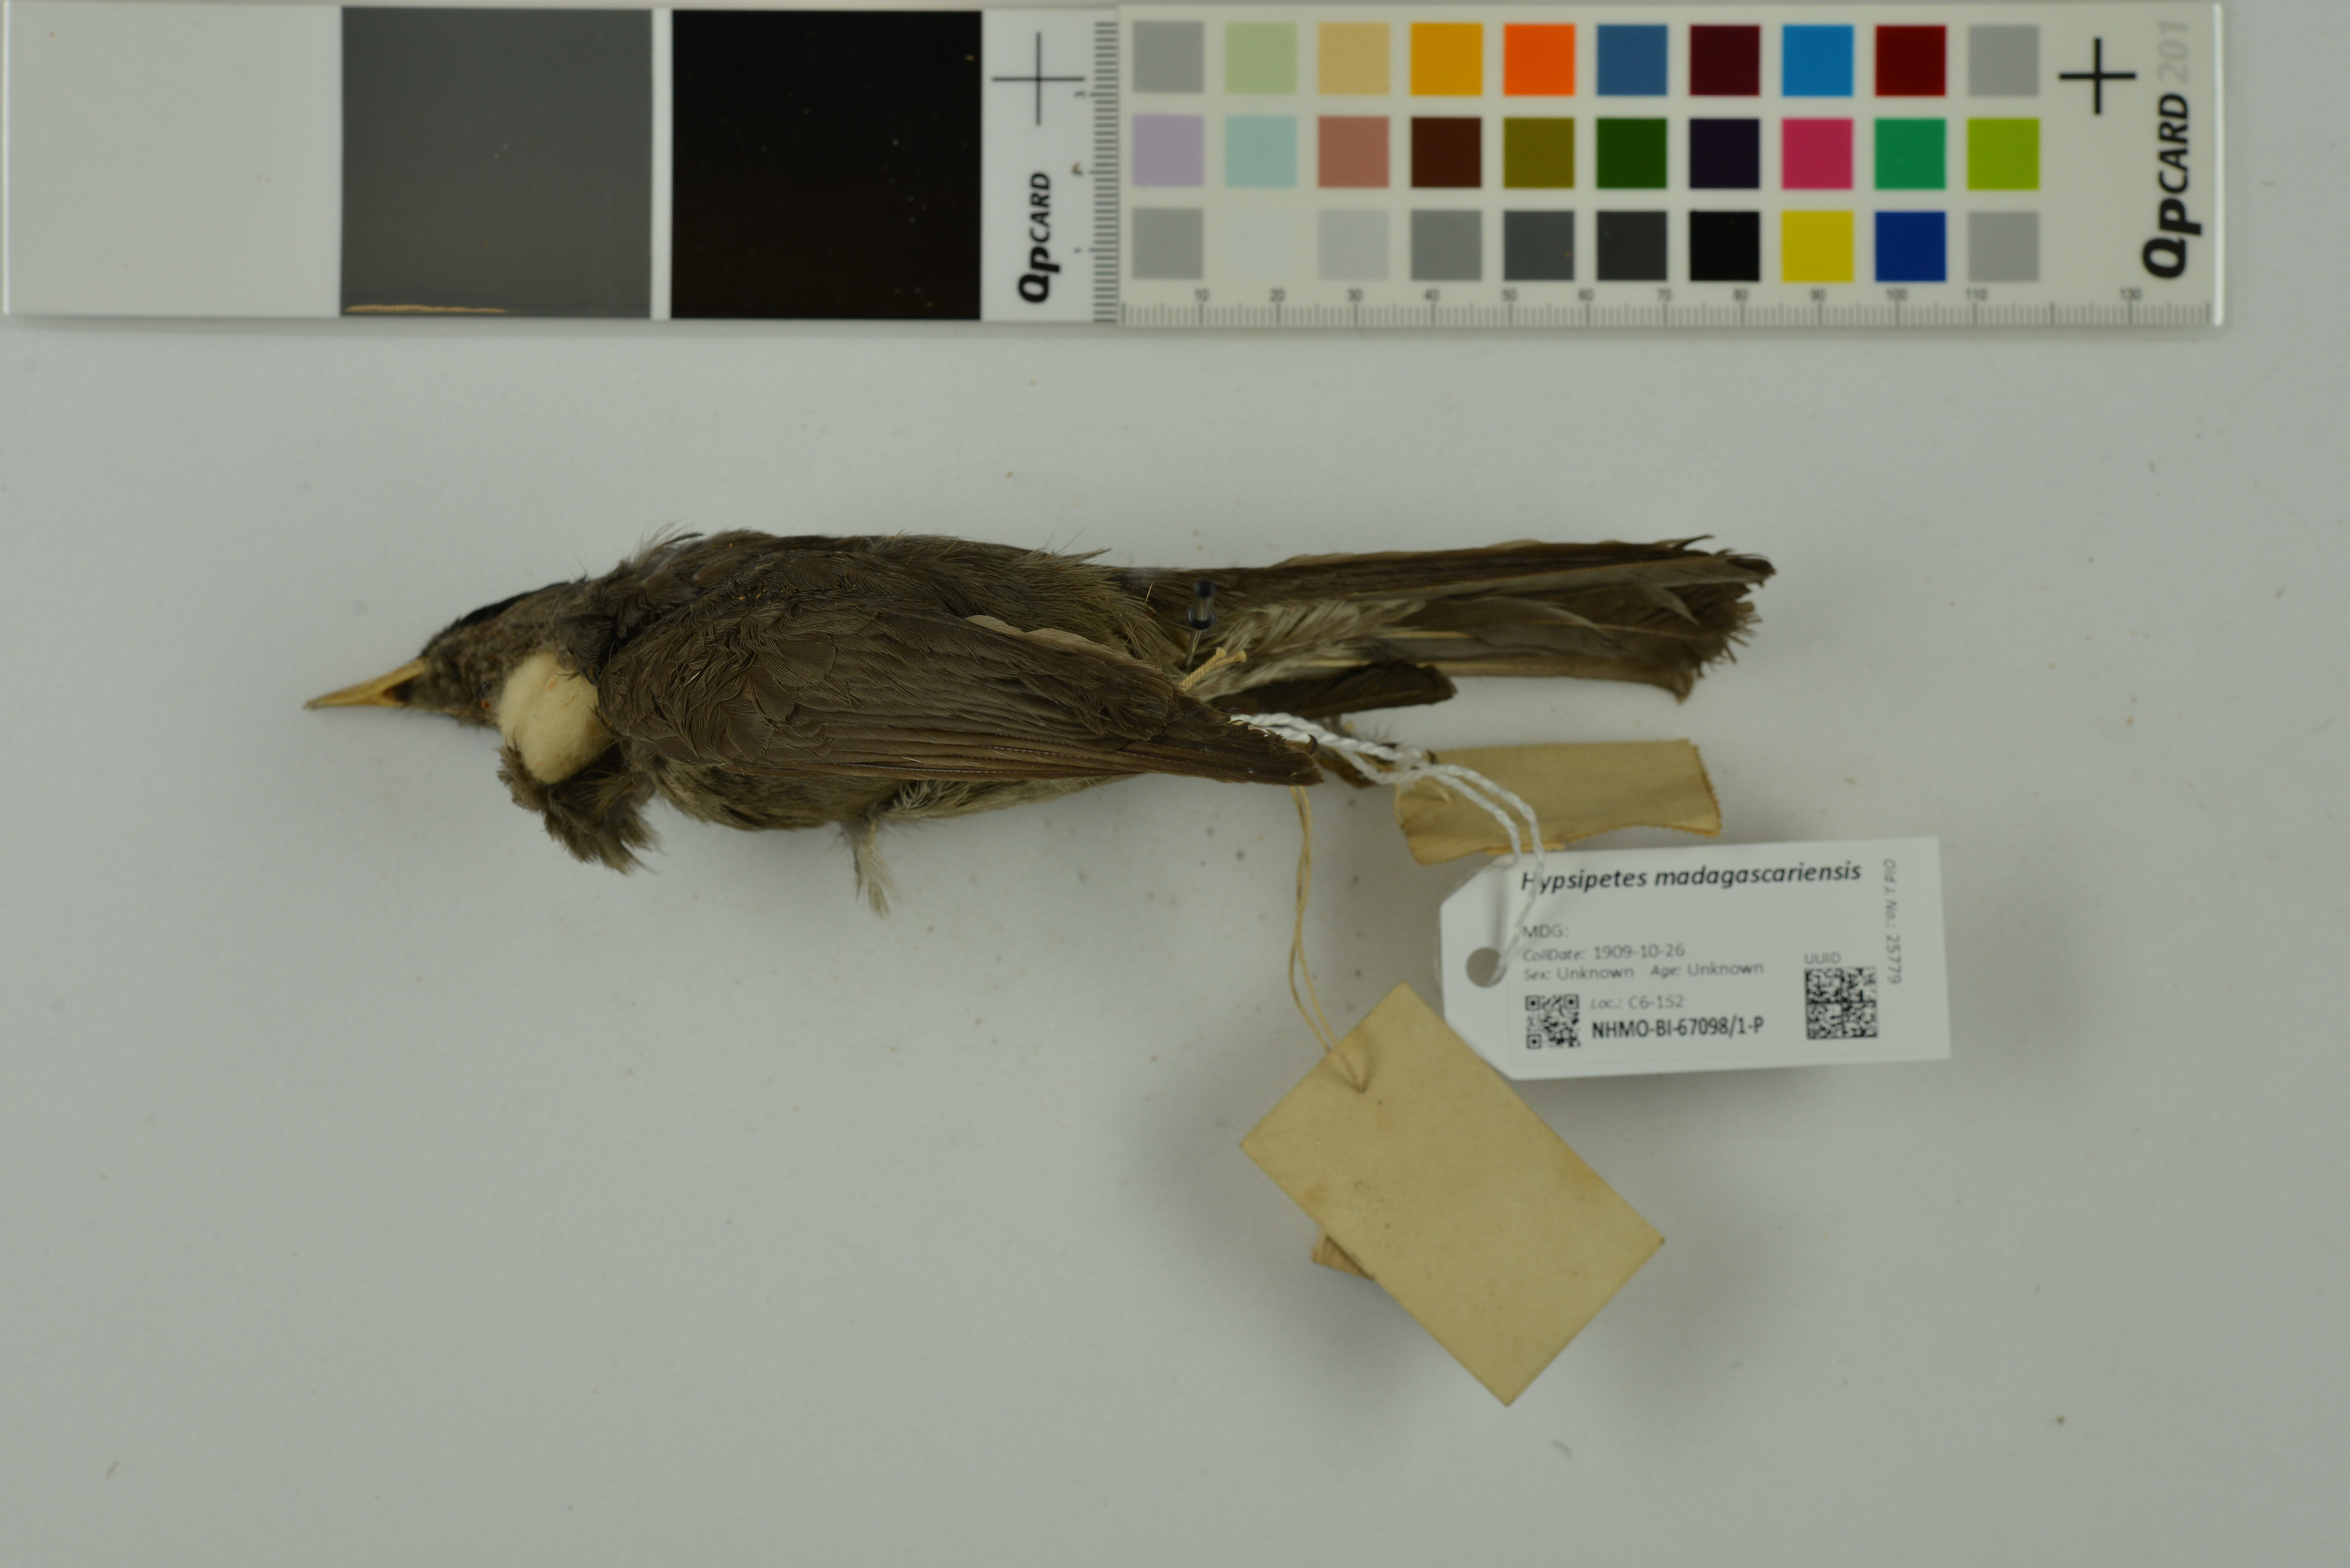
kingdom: Animalia
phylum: Chordata
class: Aves
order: Passeriformes
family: Pycnonotidae
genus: Hypsipetes
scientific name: Hypsipetes madagascariensis
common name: Malagasy bulbul
